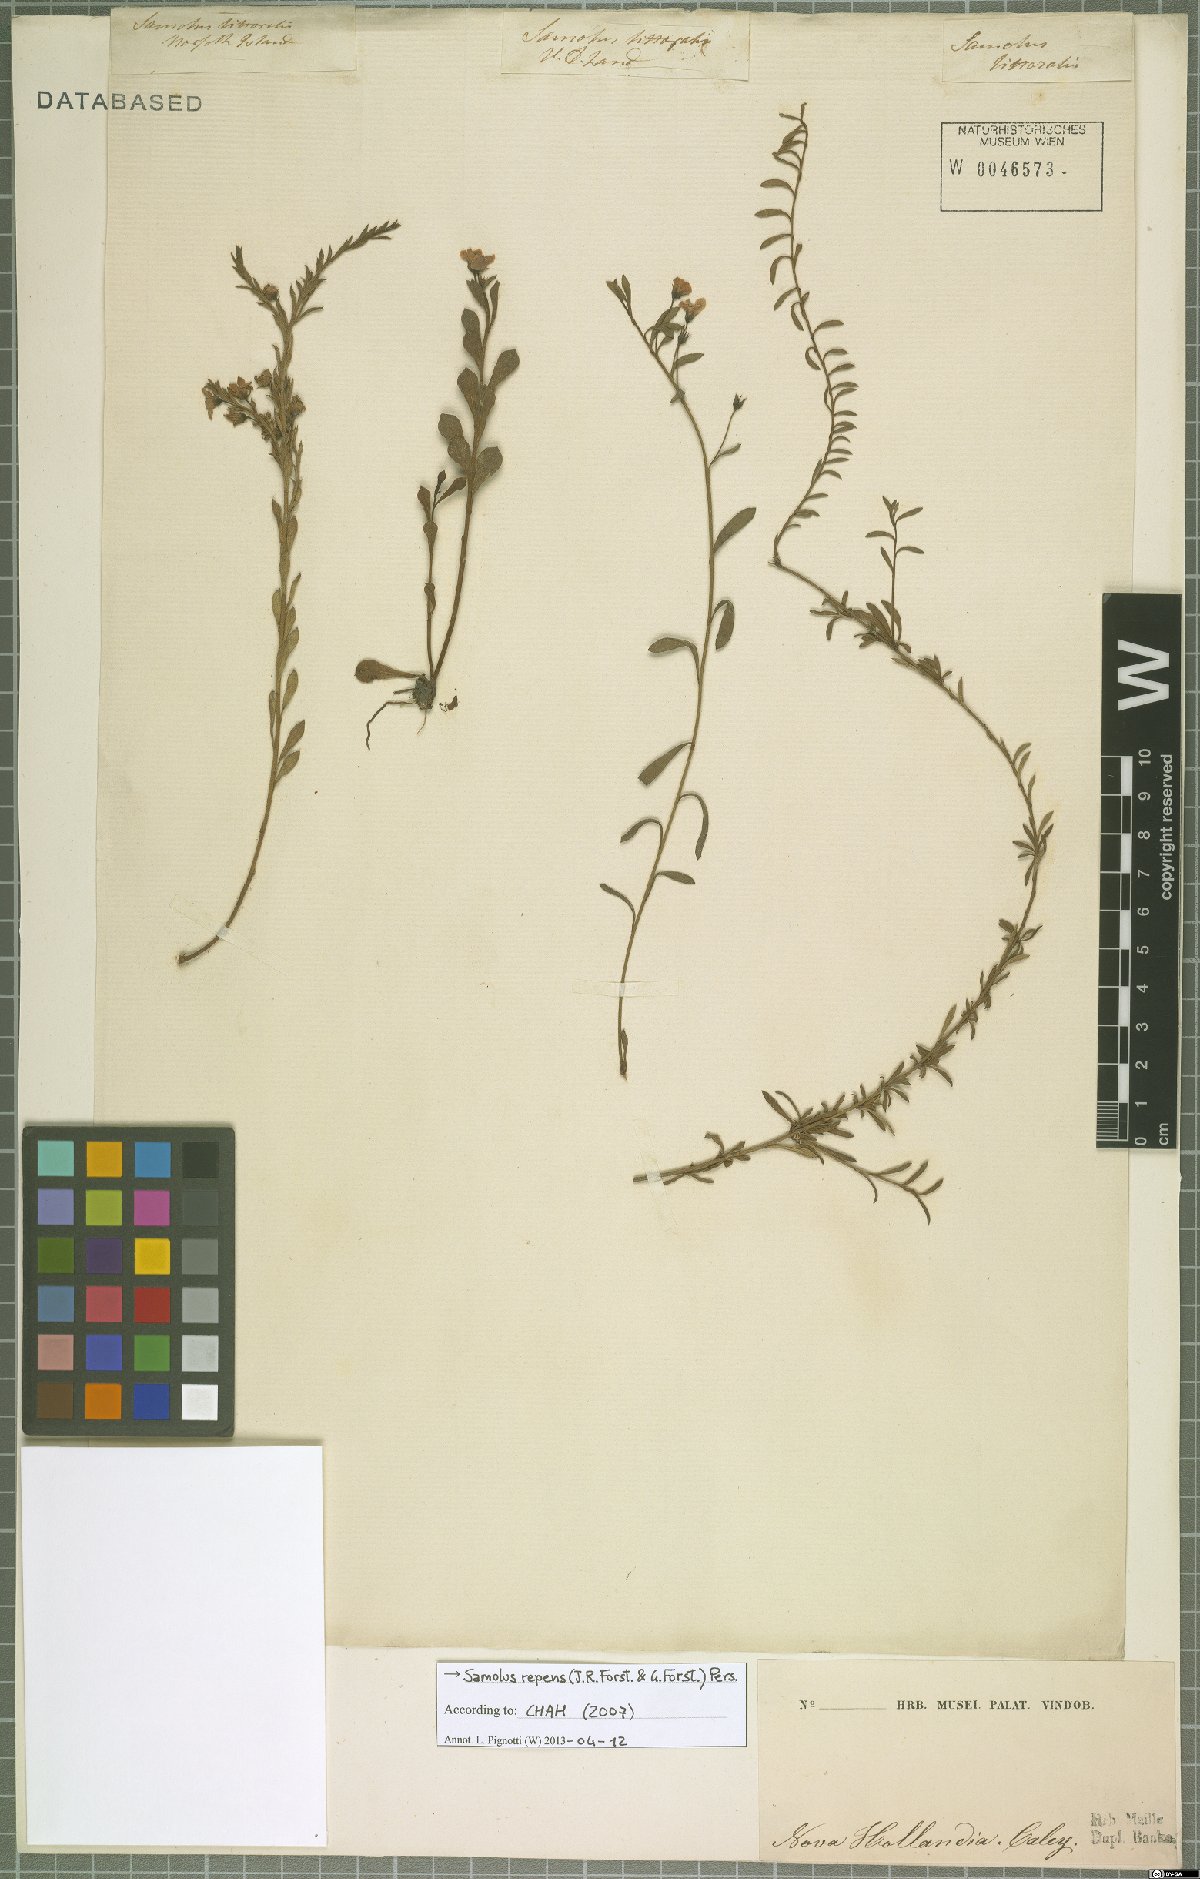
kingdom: Plantae
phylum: Tracheophyta
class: Magnoliopsida
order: Ericales
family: Primulaceae
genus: Samolus
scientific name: Samolus repens
